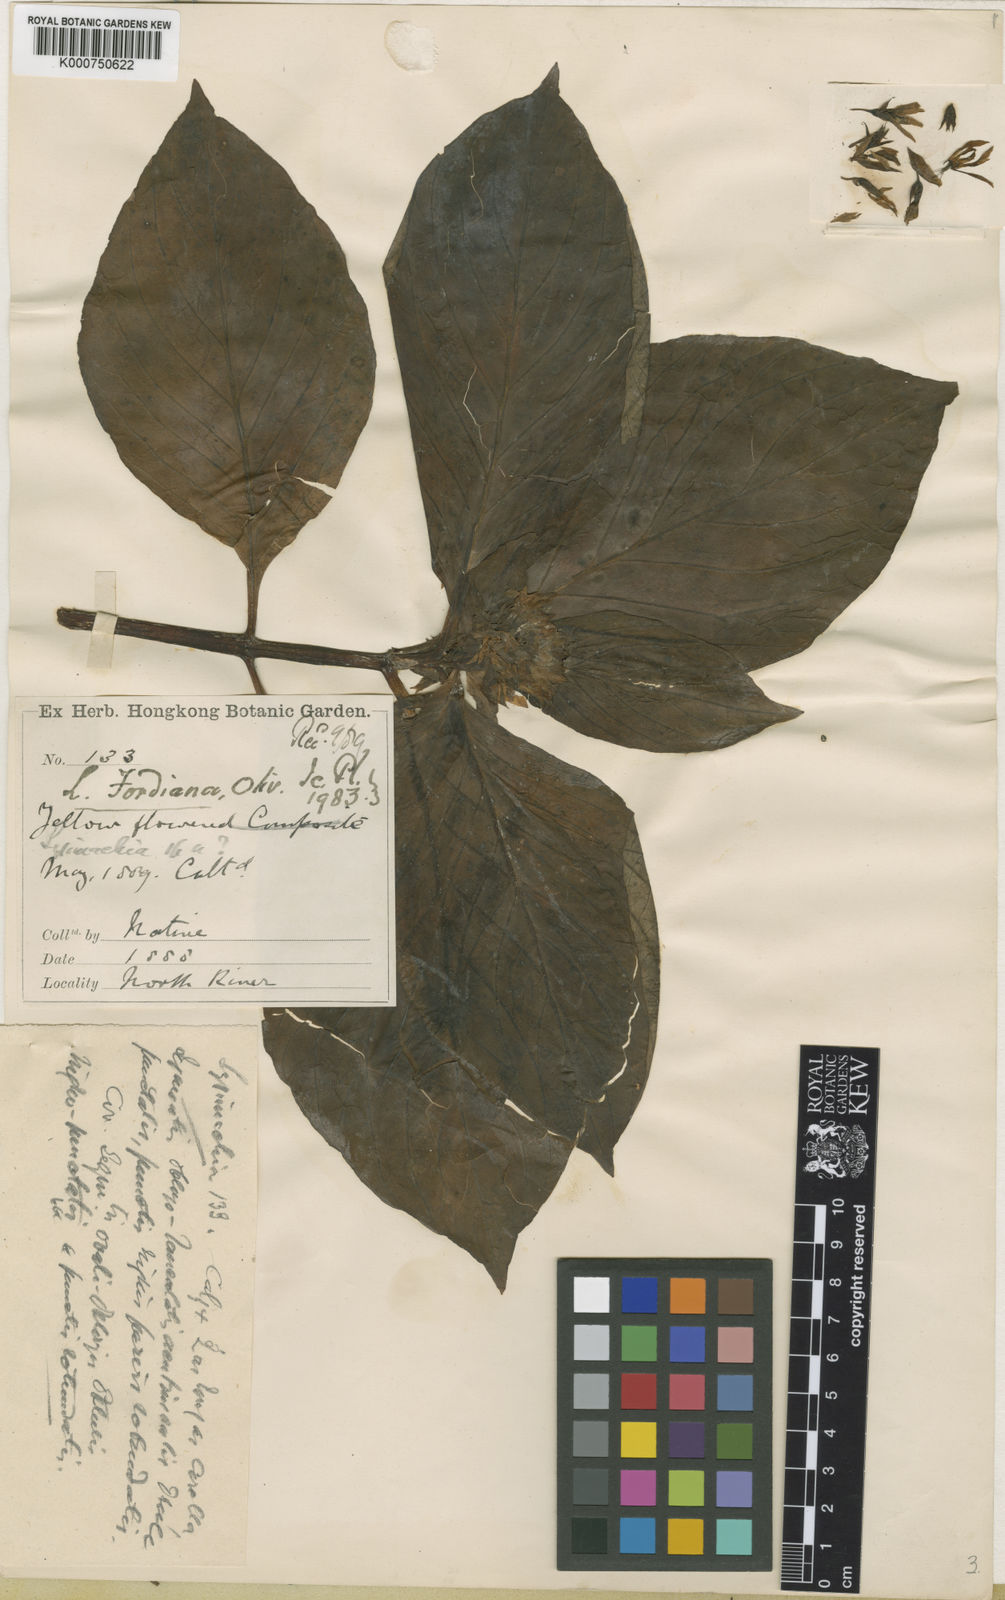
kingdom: Plantae
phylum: Tracheophyta
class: Magnoliopsida
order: Ericales
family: Primulaceae
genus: Lysimachia
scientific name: Lysimachia fordiana
